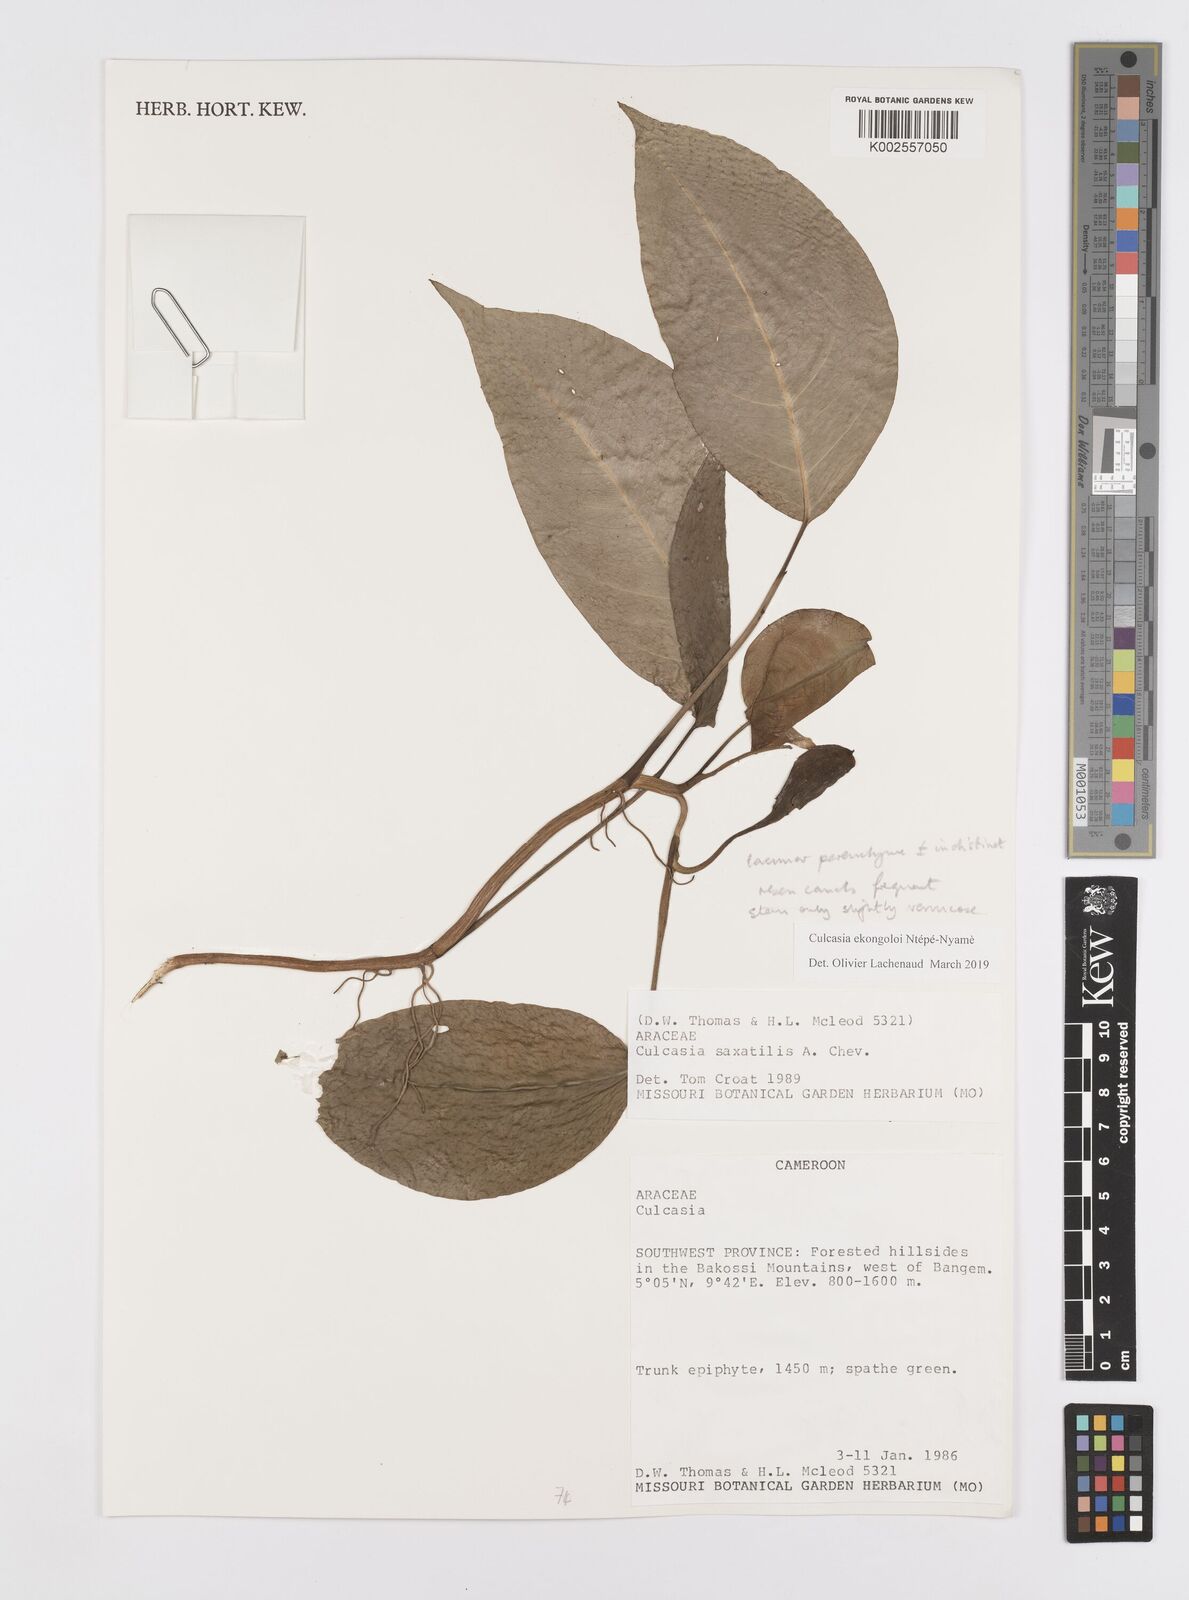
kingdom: Plantae
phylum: Tracheophyta
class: Liliopsida
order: Alismatales
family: Araceae
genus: Culcasia
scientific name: Culcasia ekongoloi
